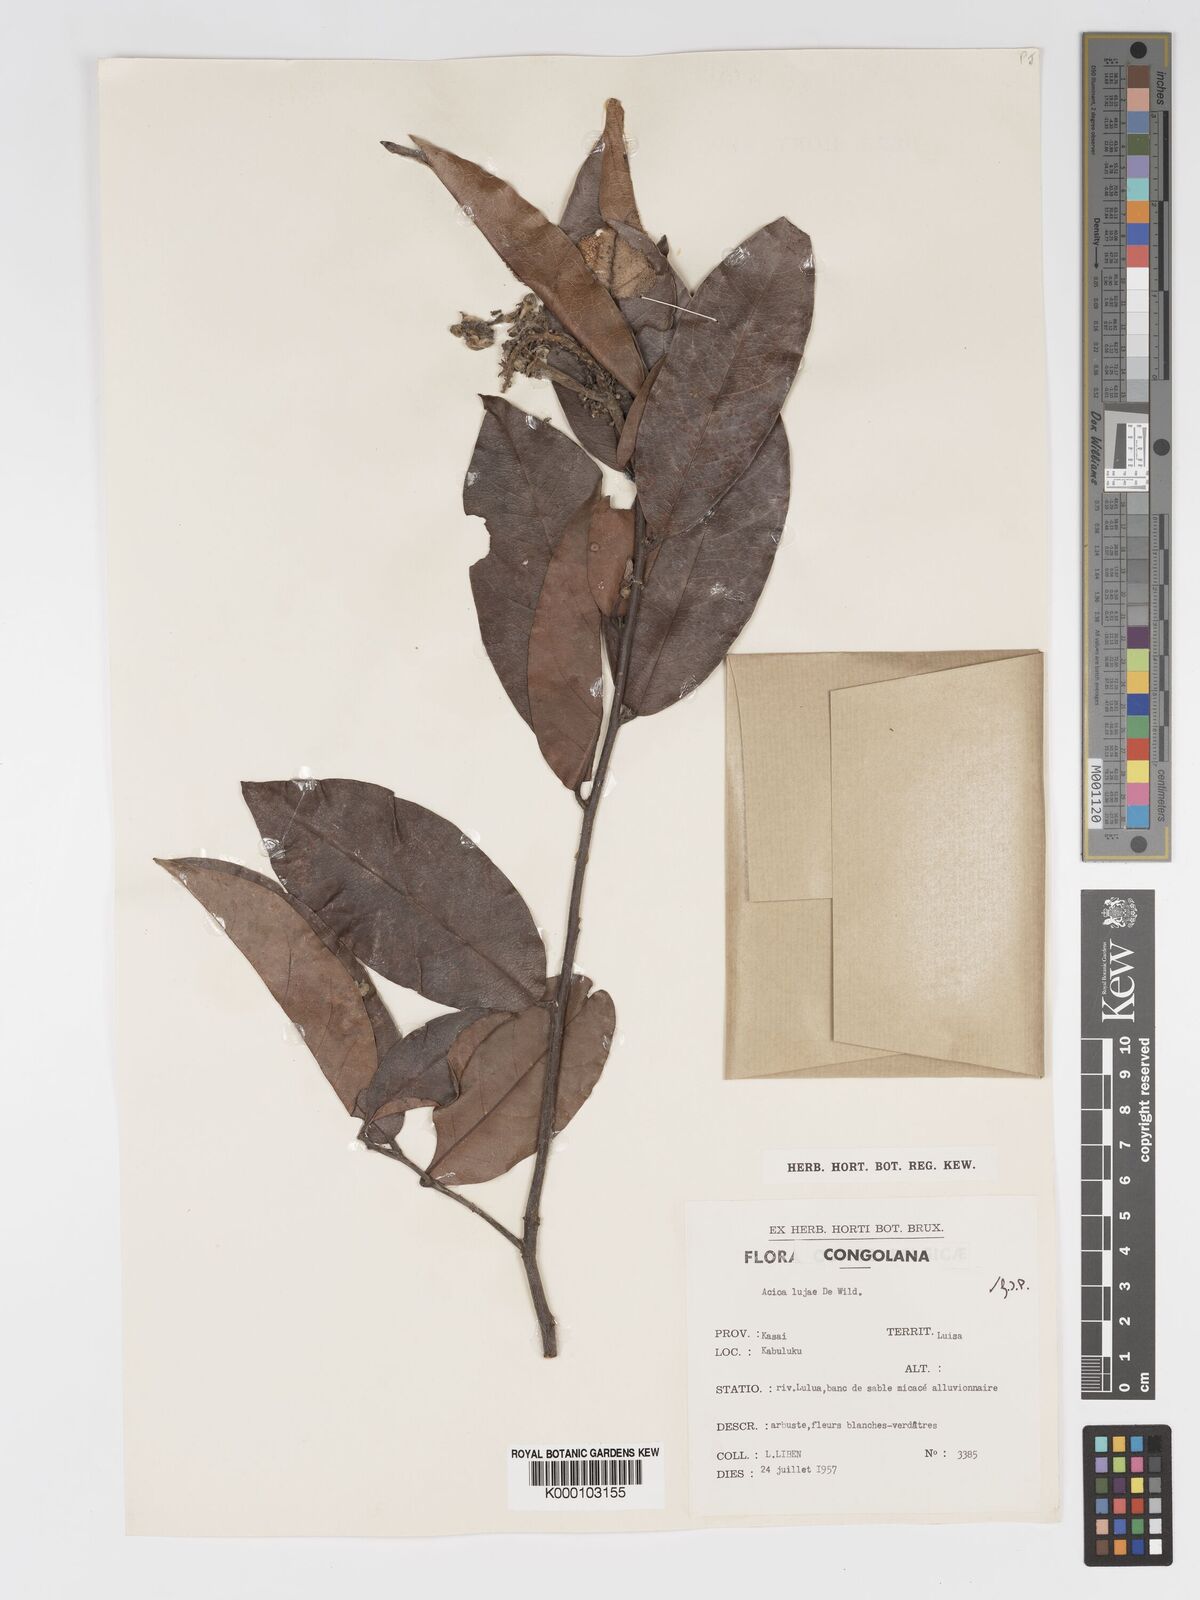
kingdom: Plantae
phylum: Tracheophyta
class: Magnoliopsida
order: Malpighiales
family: Chrysobalanaceae
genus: Dactyladenia
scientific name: Dactyladenia buchneri
